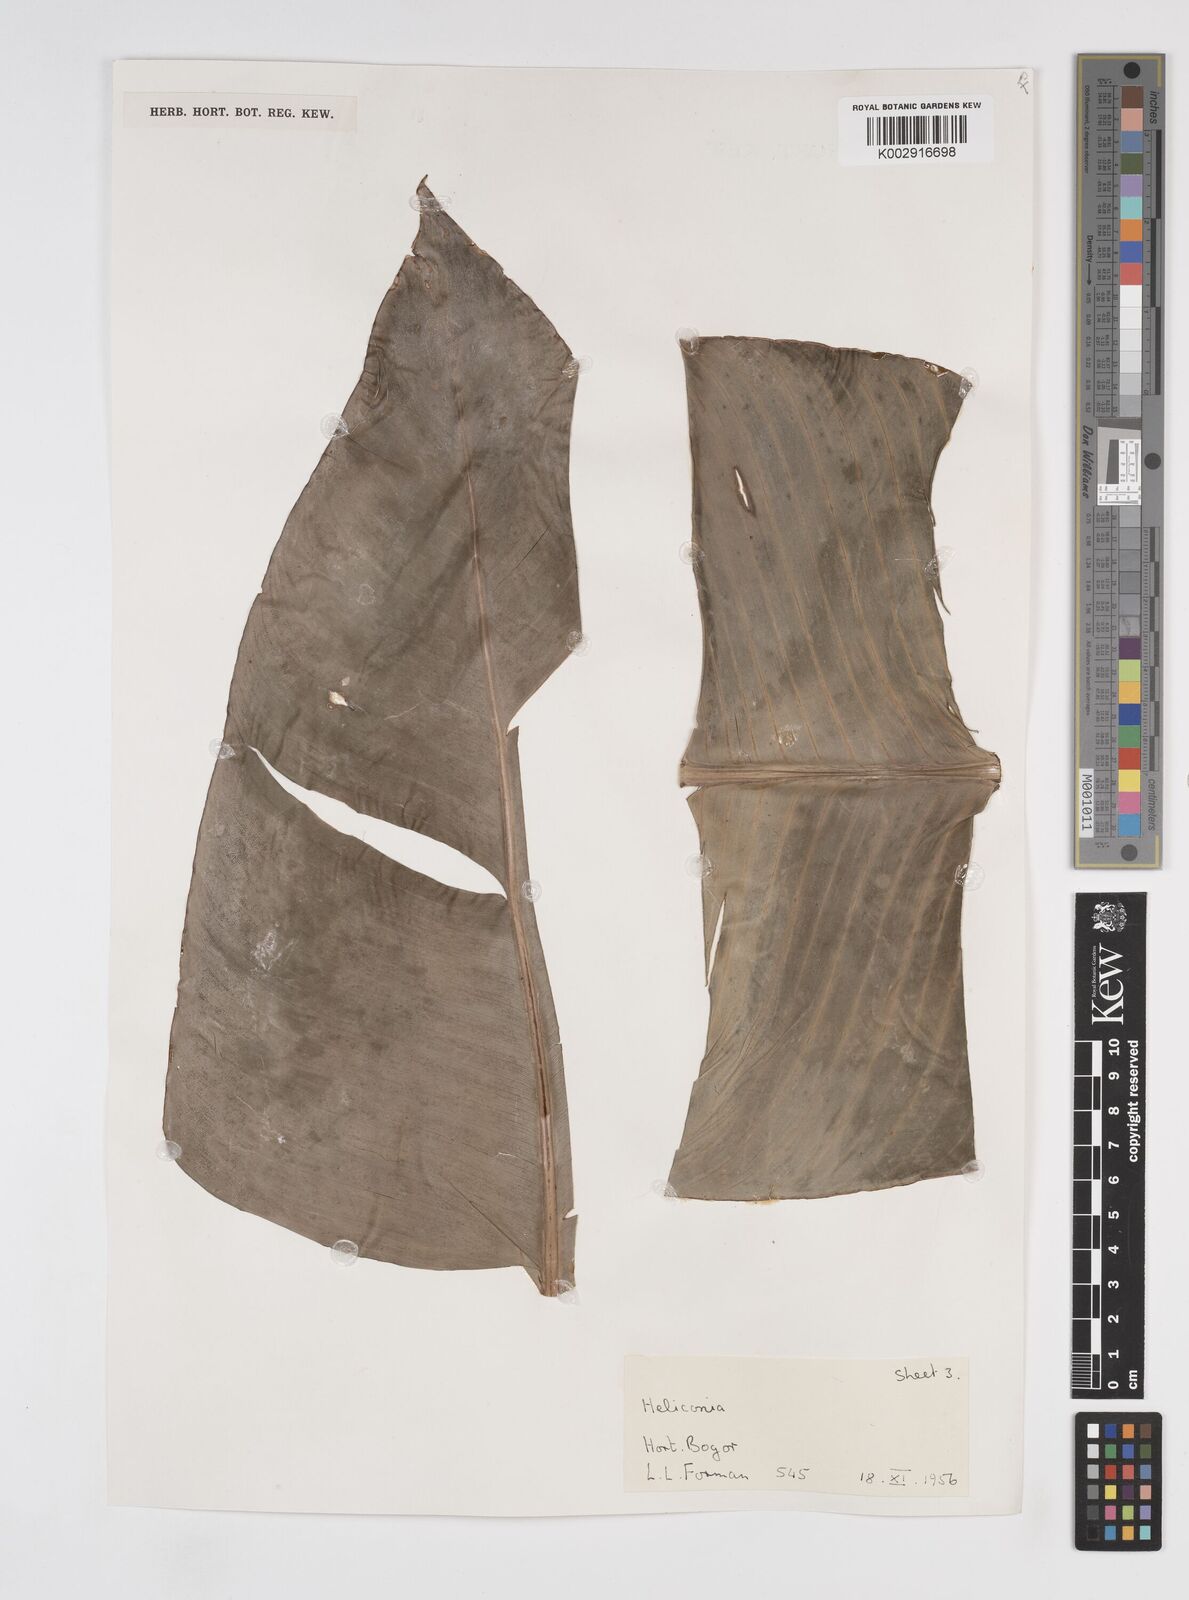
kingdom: Plantae
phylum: Tracheophyta
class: Liliopsida
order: Zingiberales
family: Heliconiaceae
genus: Heliconia
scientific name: Heliconia metallica
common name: Shining bird of paradise
